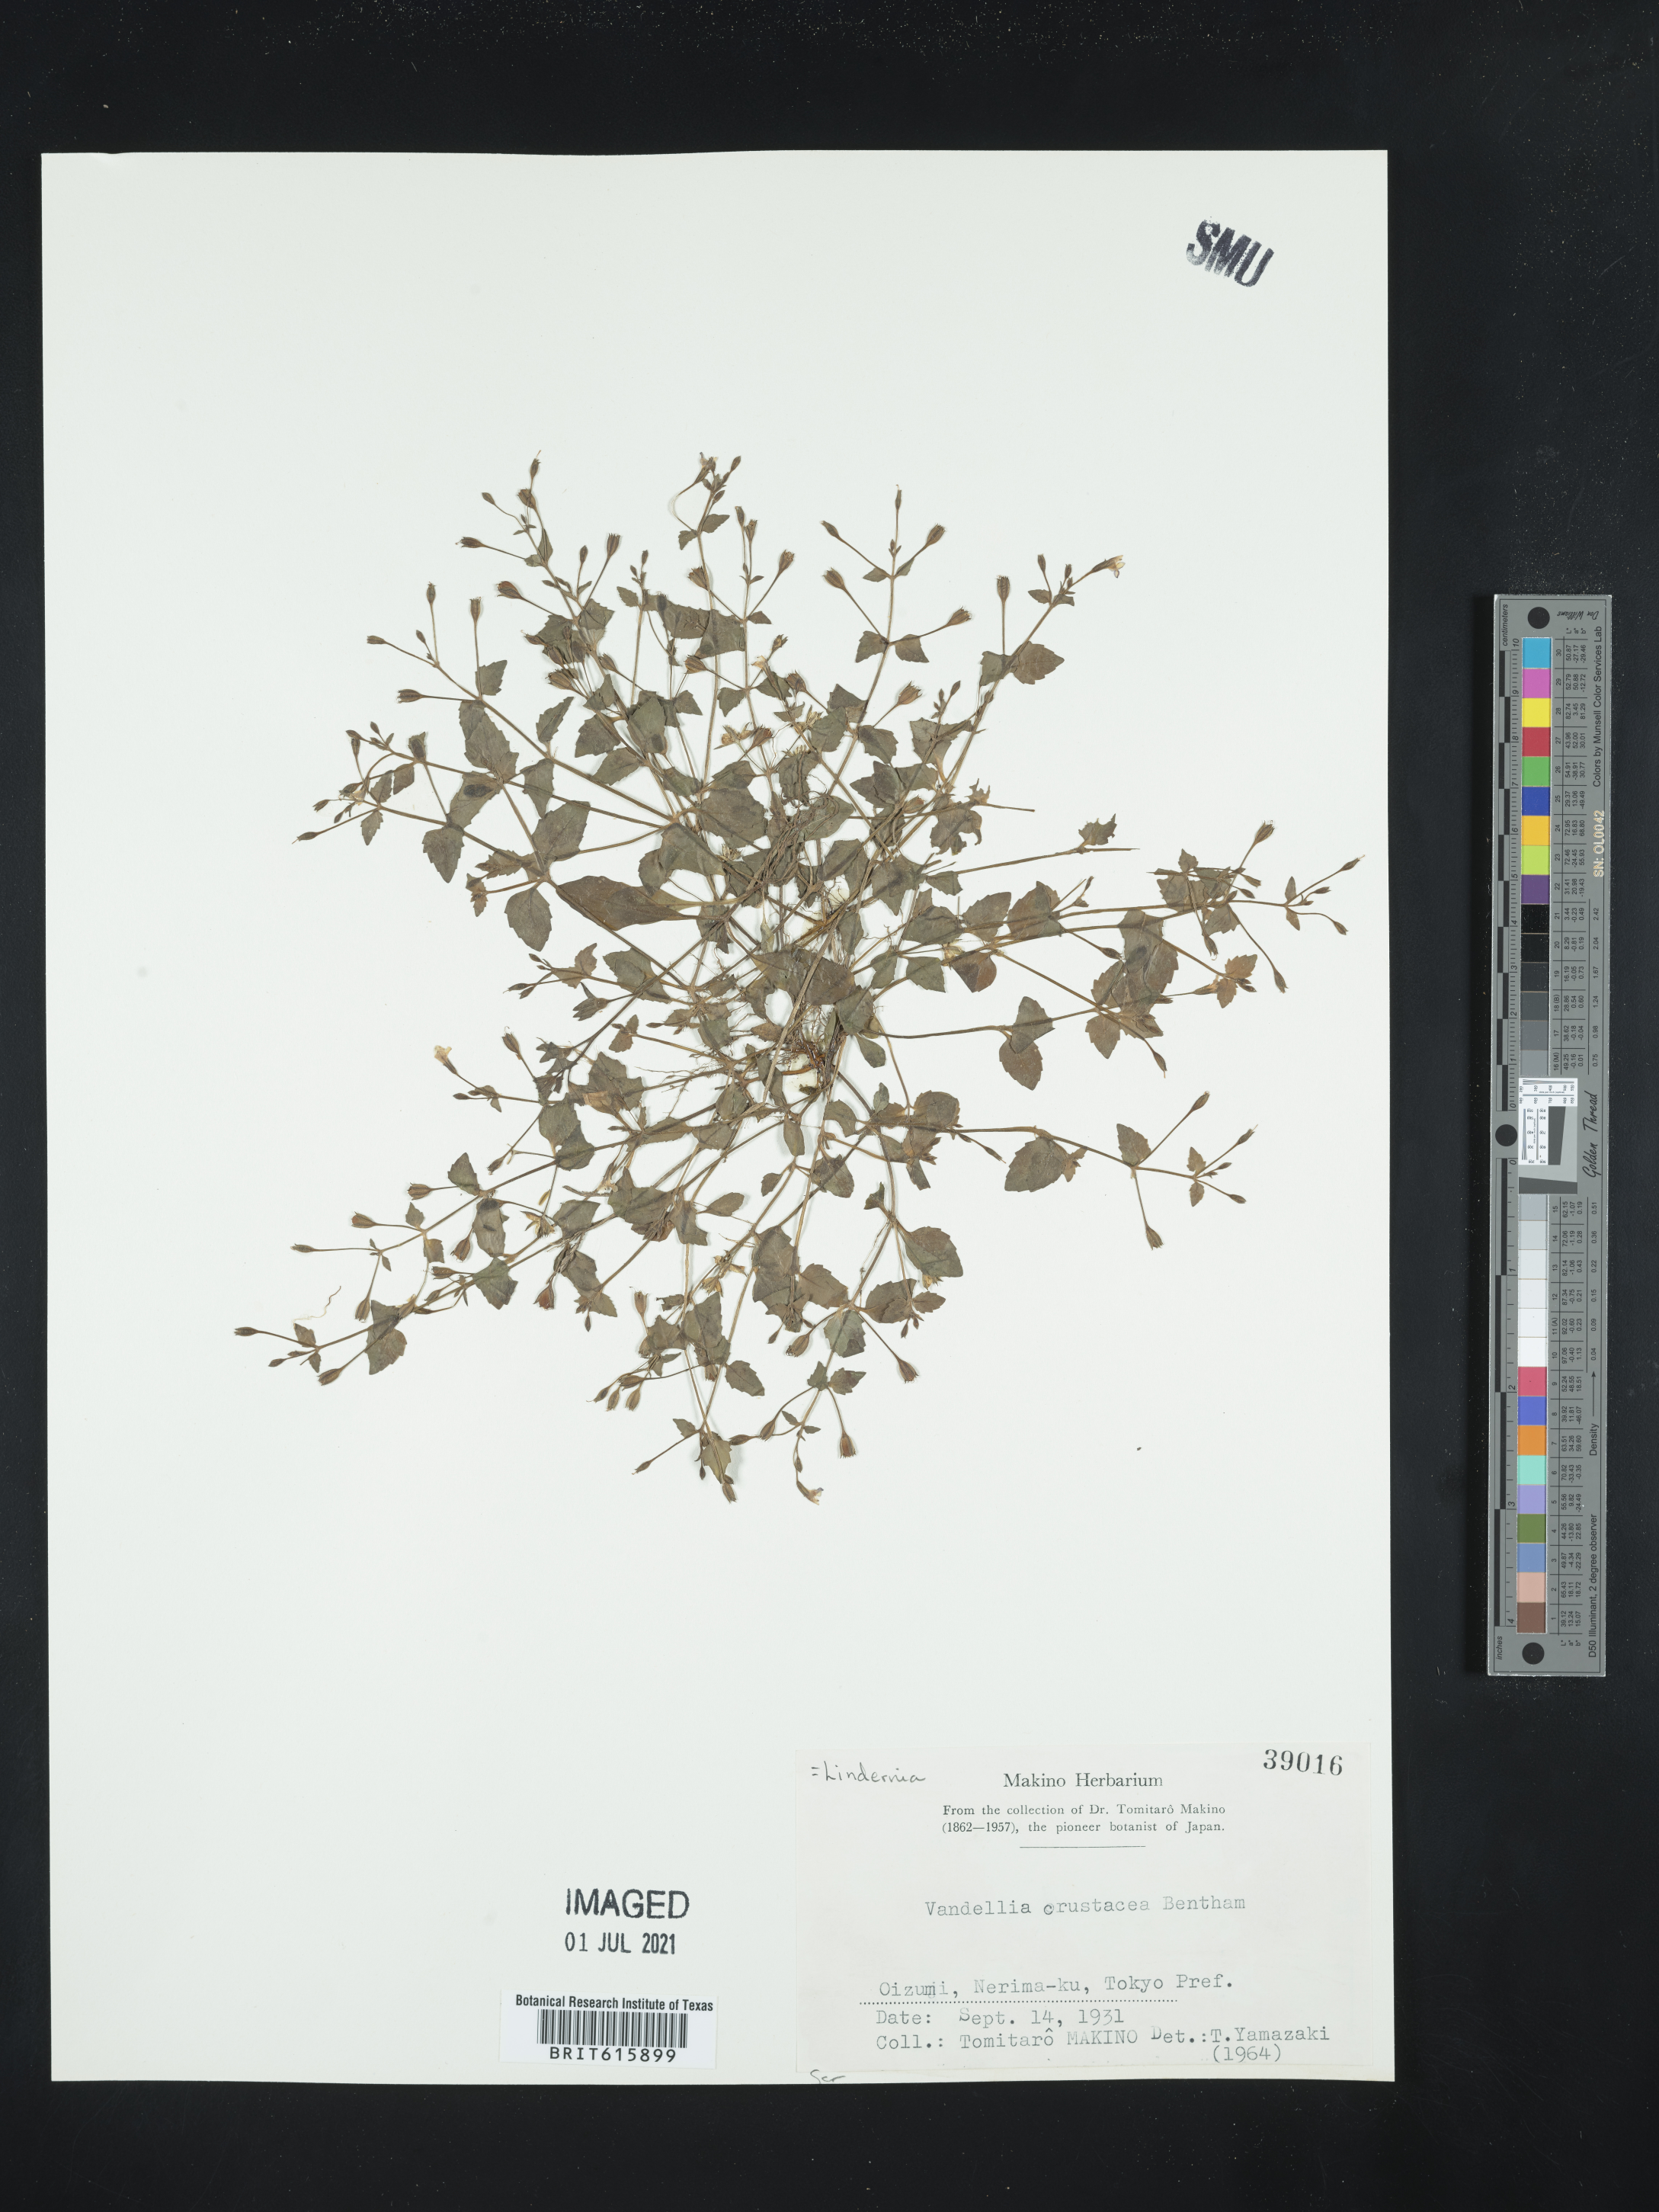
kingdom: Plantae
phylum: Tracheophyta
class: Magnoliopsida
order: Lamiales
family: Linderniaceae
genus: Torenia
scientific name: Torenia crustacea
